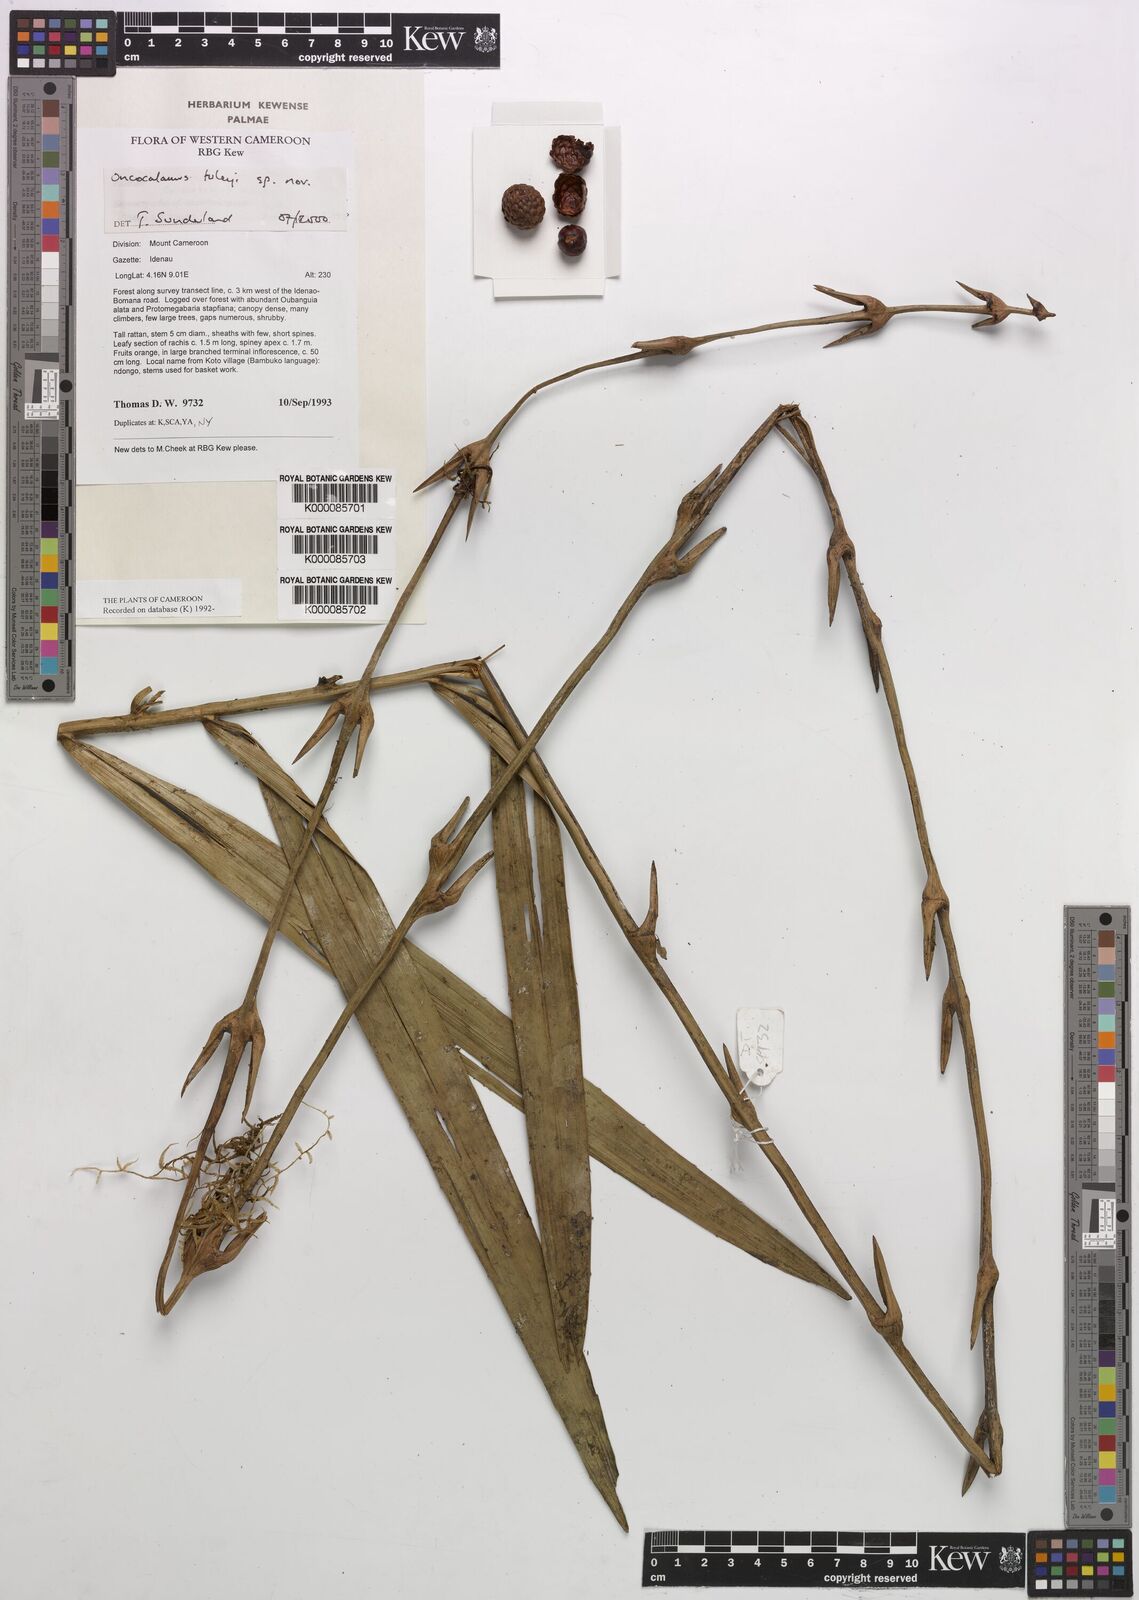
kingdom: Plantae
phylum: Tracheophyta
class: Liliopsida
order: Arecales
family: Arecaceae
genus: Oncocalamus
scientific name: Oncocalamus tuleyi
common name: Rattan
